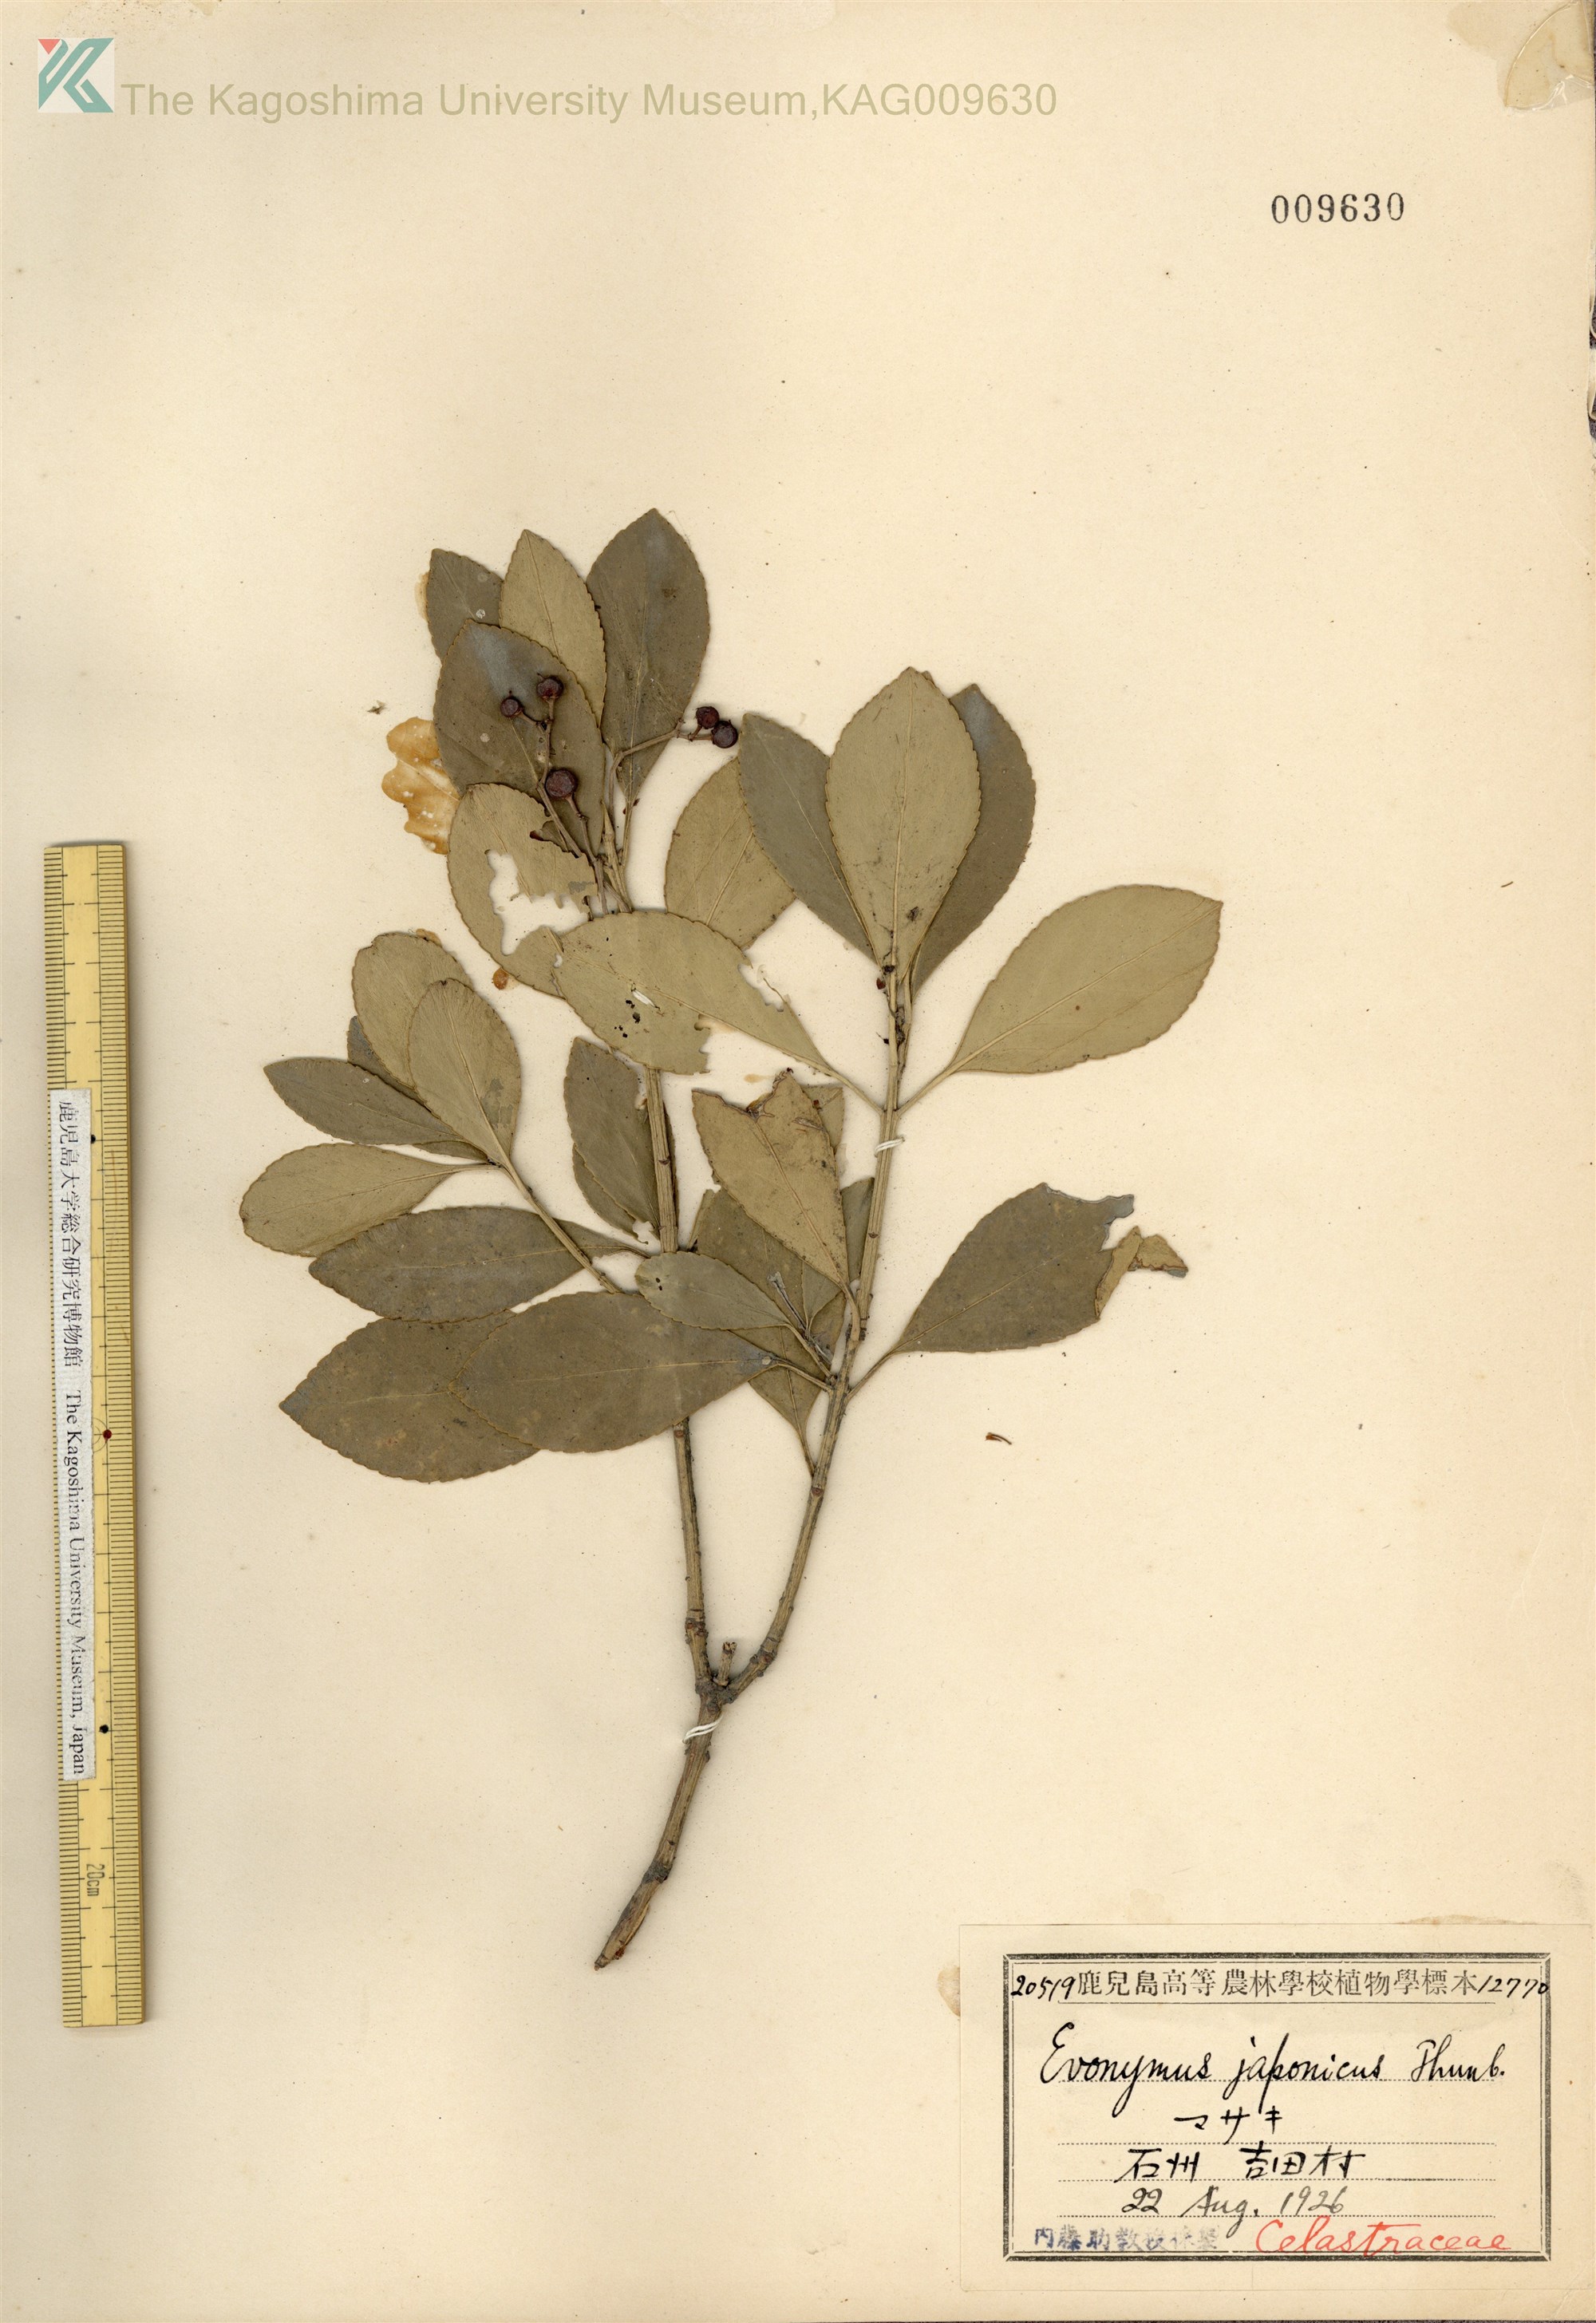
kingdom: Plantae
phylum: Tracheophyta
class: Magnoliopsida
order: Celastrales
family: Celastraceae
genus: Euonymus
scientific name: Euonymus japonicus
